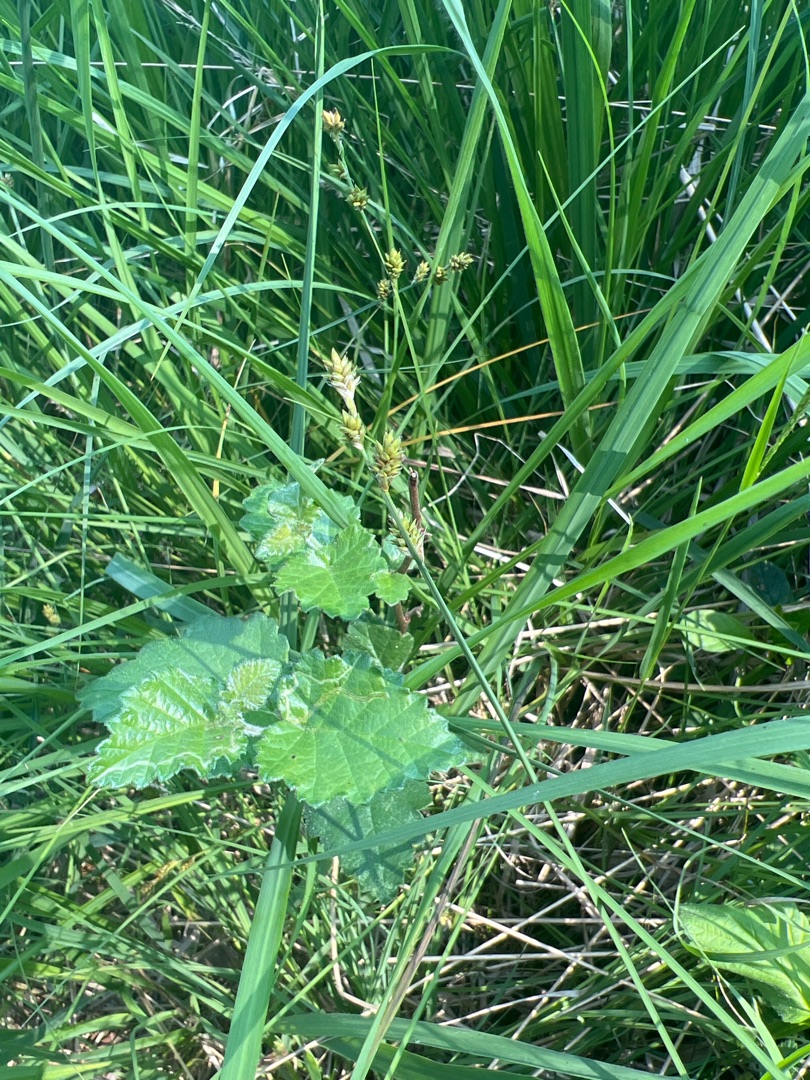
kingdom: Plantae
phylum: Tracheophyta
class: Liliopsida
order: Poales
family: Cyperaceae
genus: Carex
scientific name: Carex canescens
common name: Grå star
